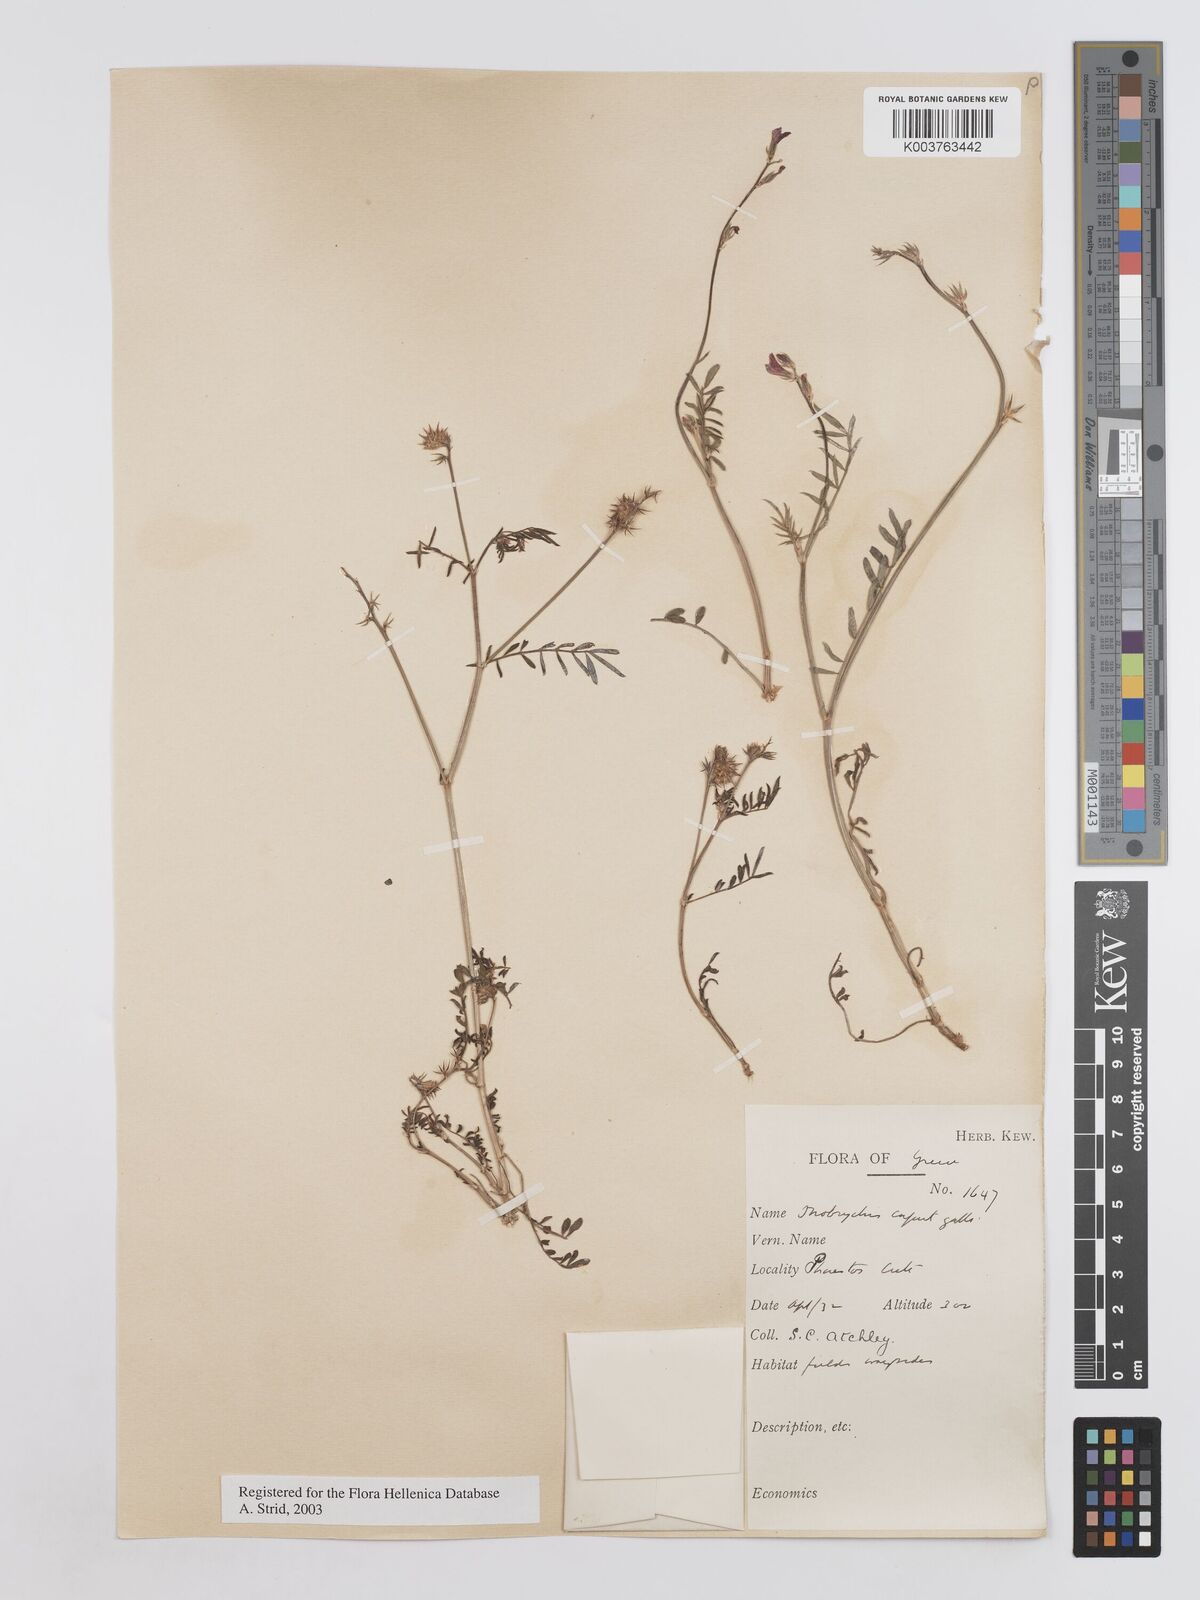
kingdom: Plantae
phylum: Tracheophyta
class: Magnoliopsida
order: Fabales
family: Fabaceae
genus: Onobrychis
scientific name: Onobrychis caput-galli
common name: Cockscomb sainfoin
